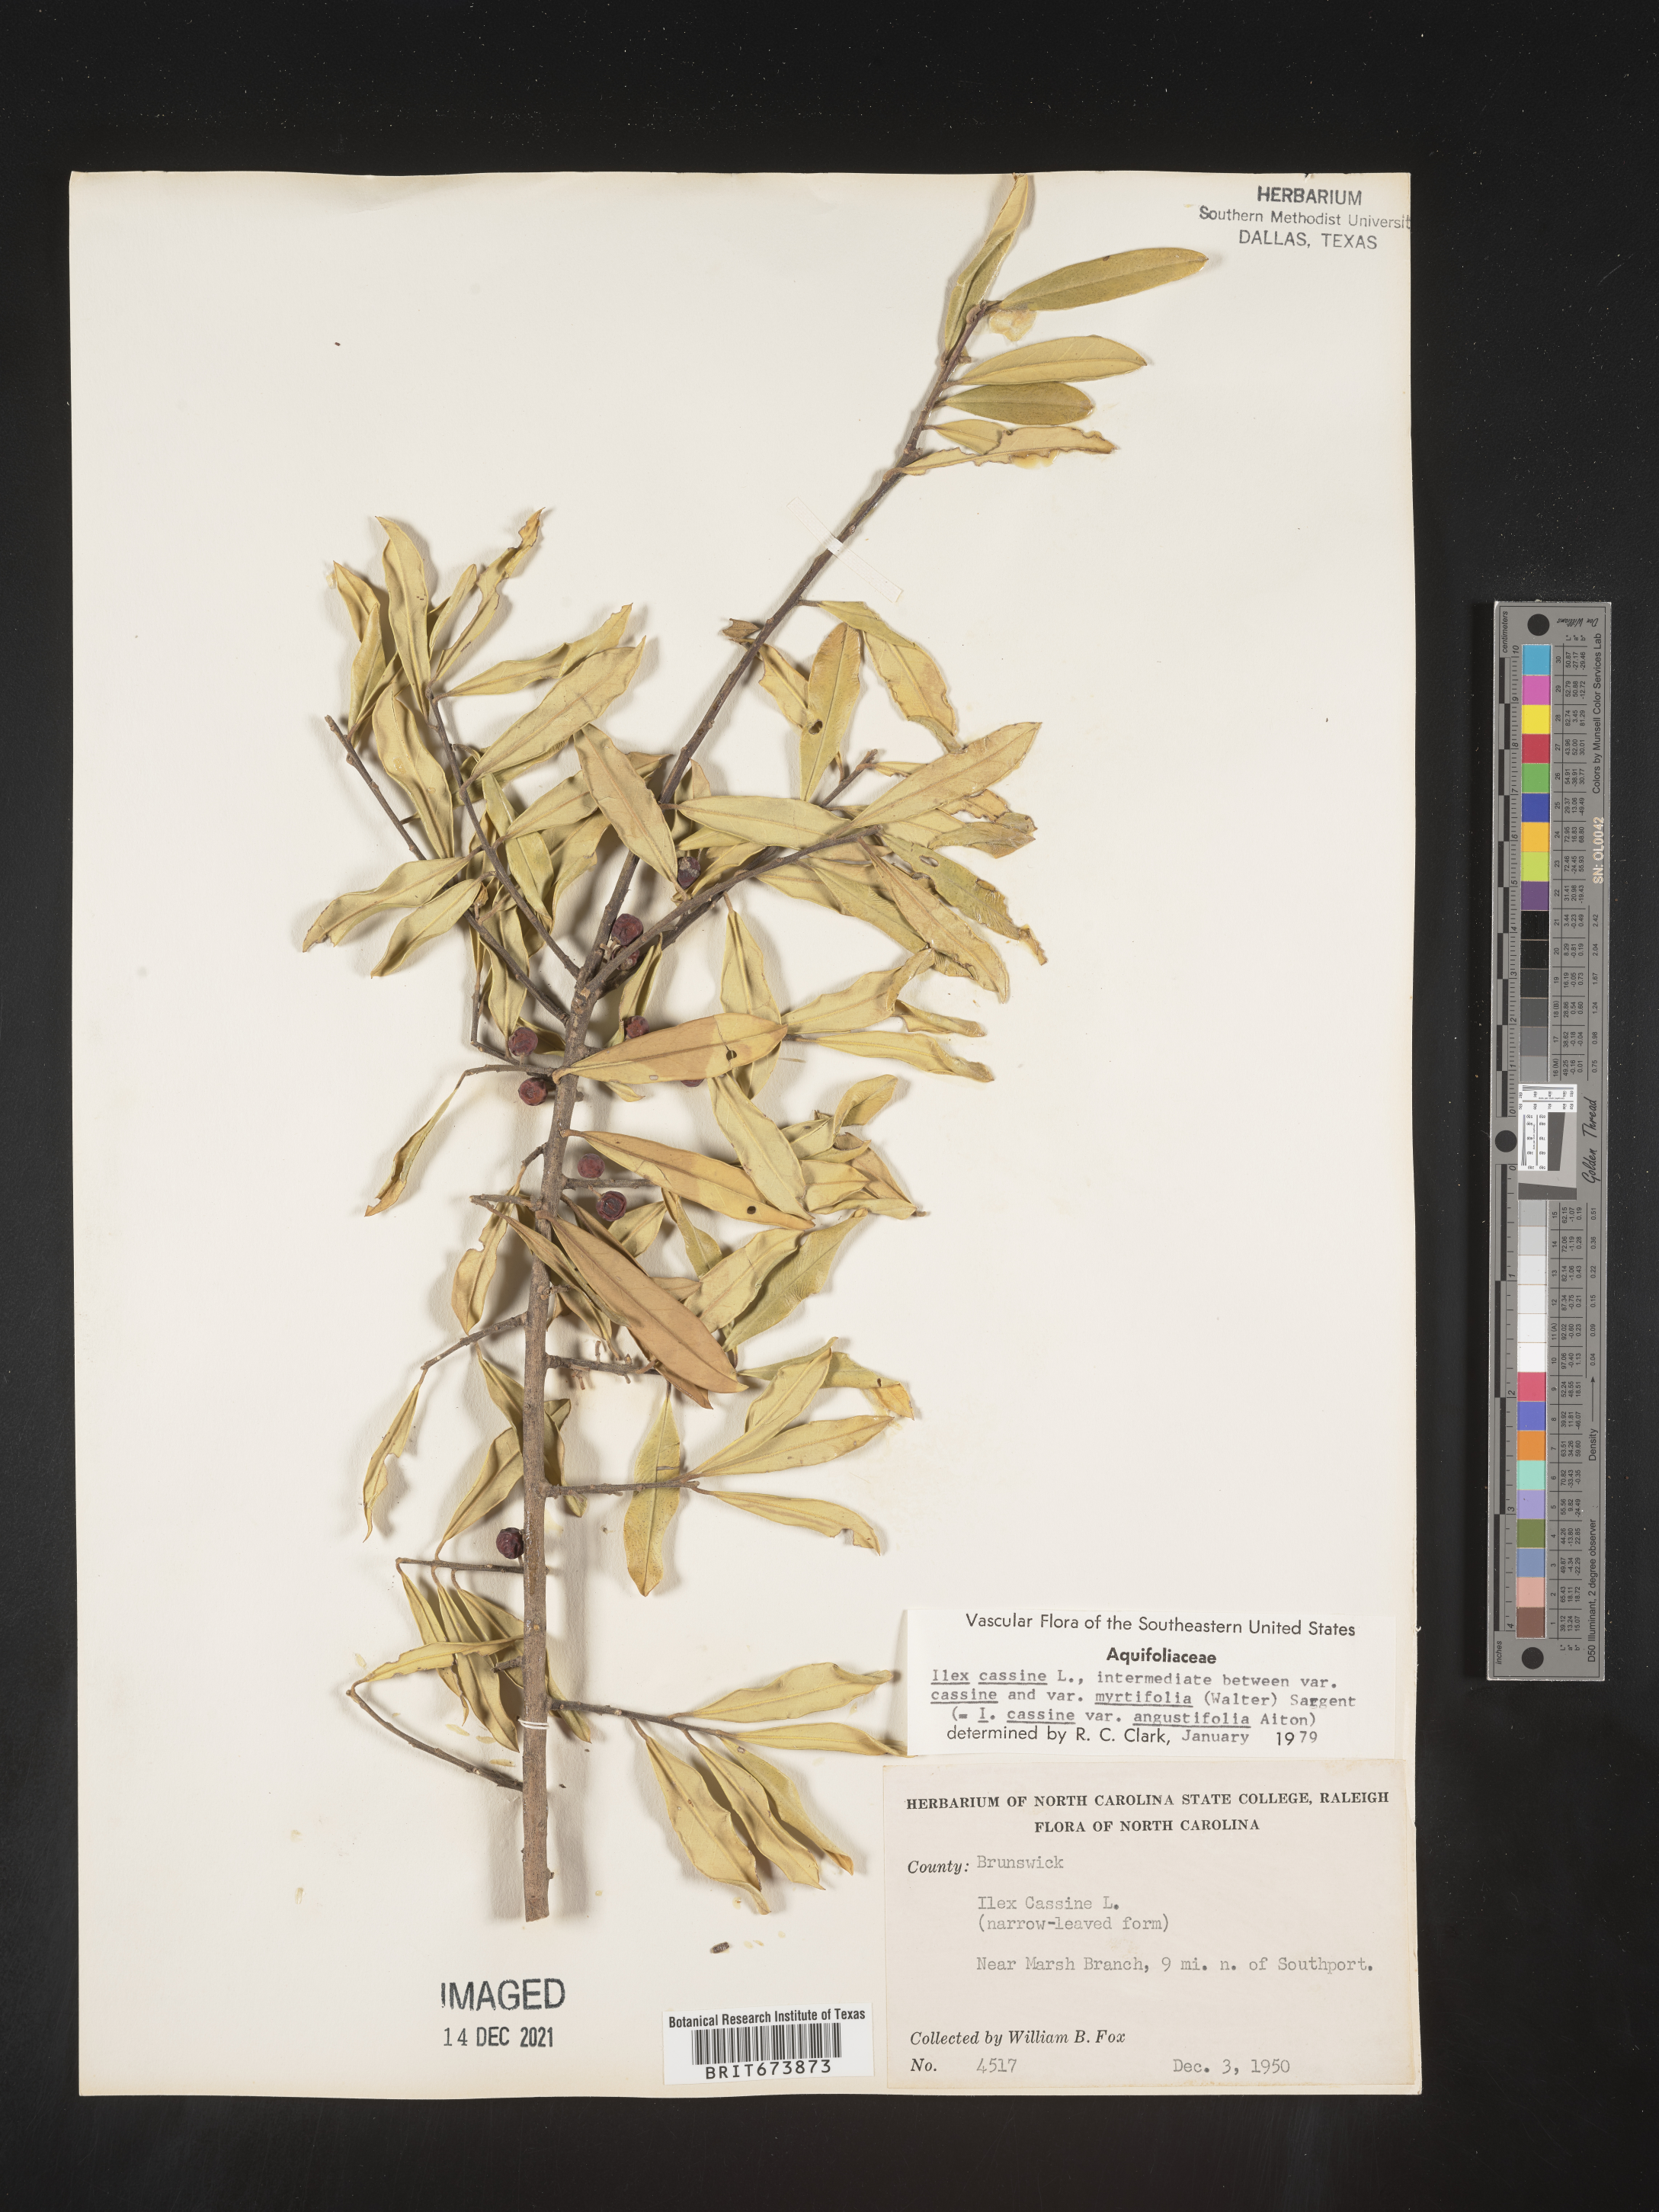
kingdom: Plantae
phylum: Tracheophyta
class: Magnoliopsida
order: Aquifoliales
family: Aquifoliaceae
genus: Ilex
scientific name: Ilex cassine
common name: Dahoon
